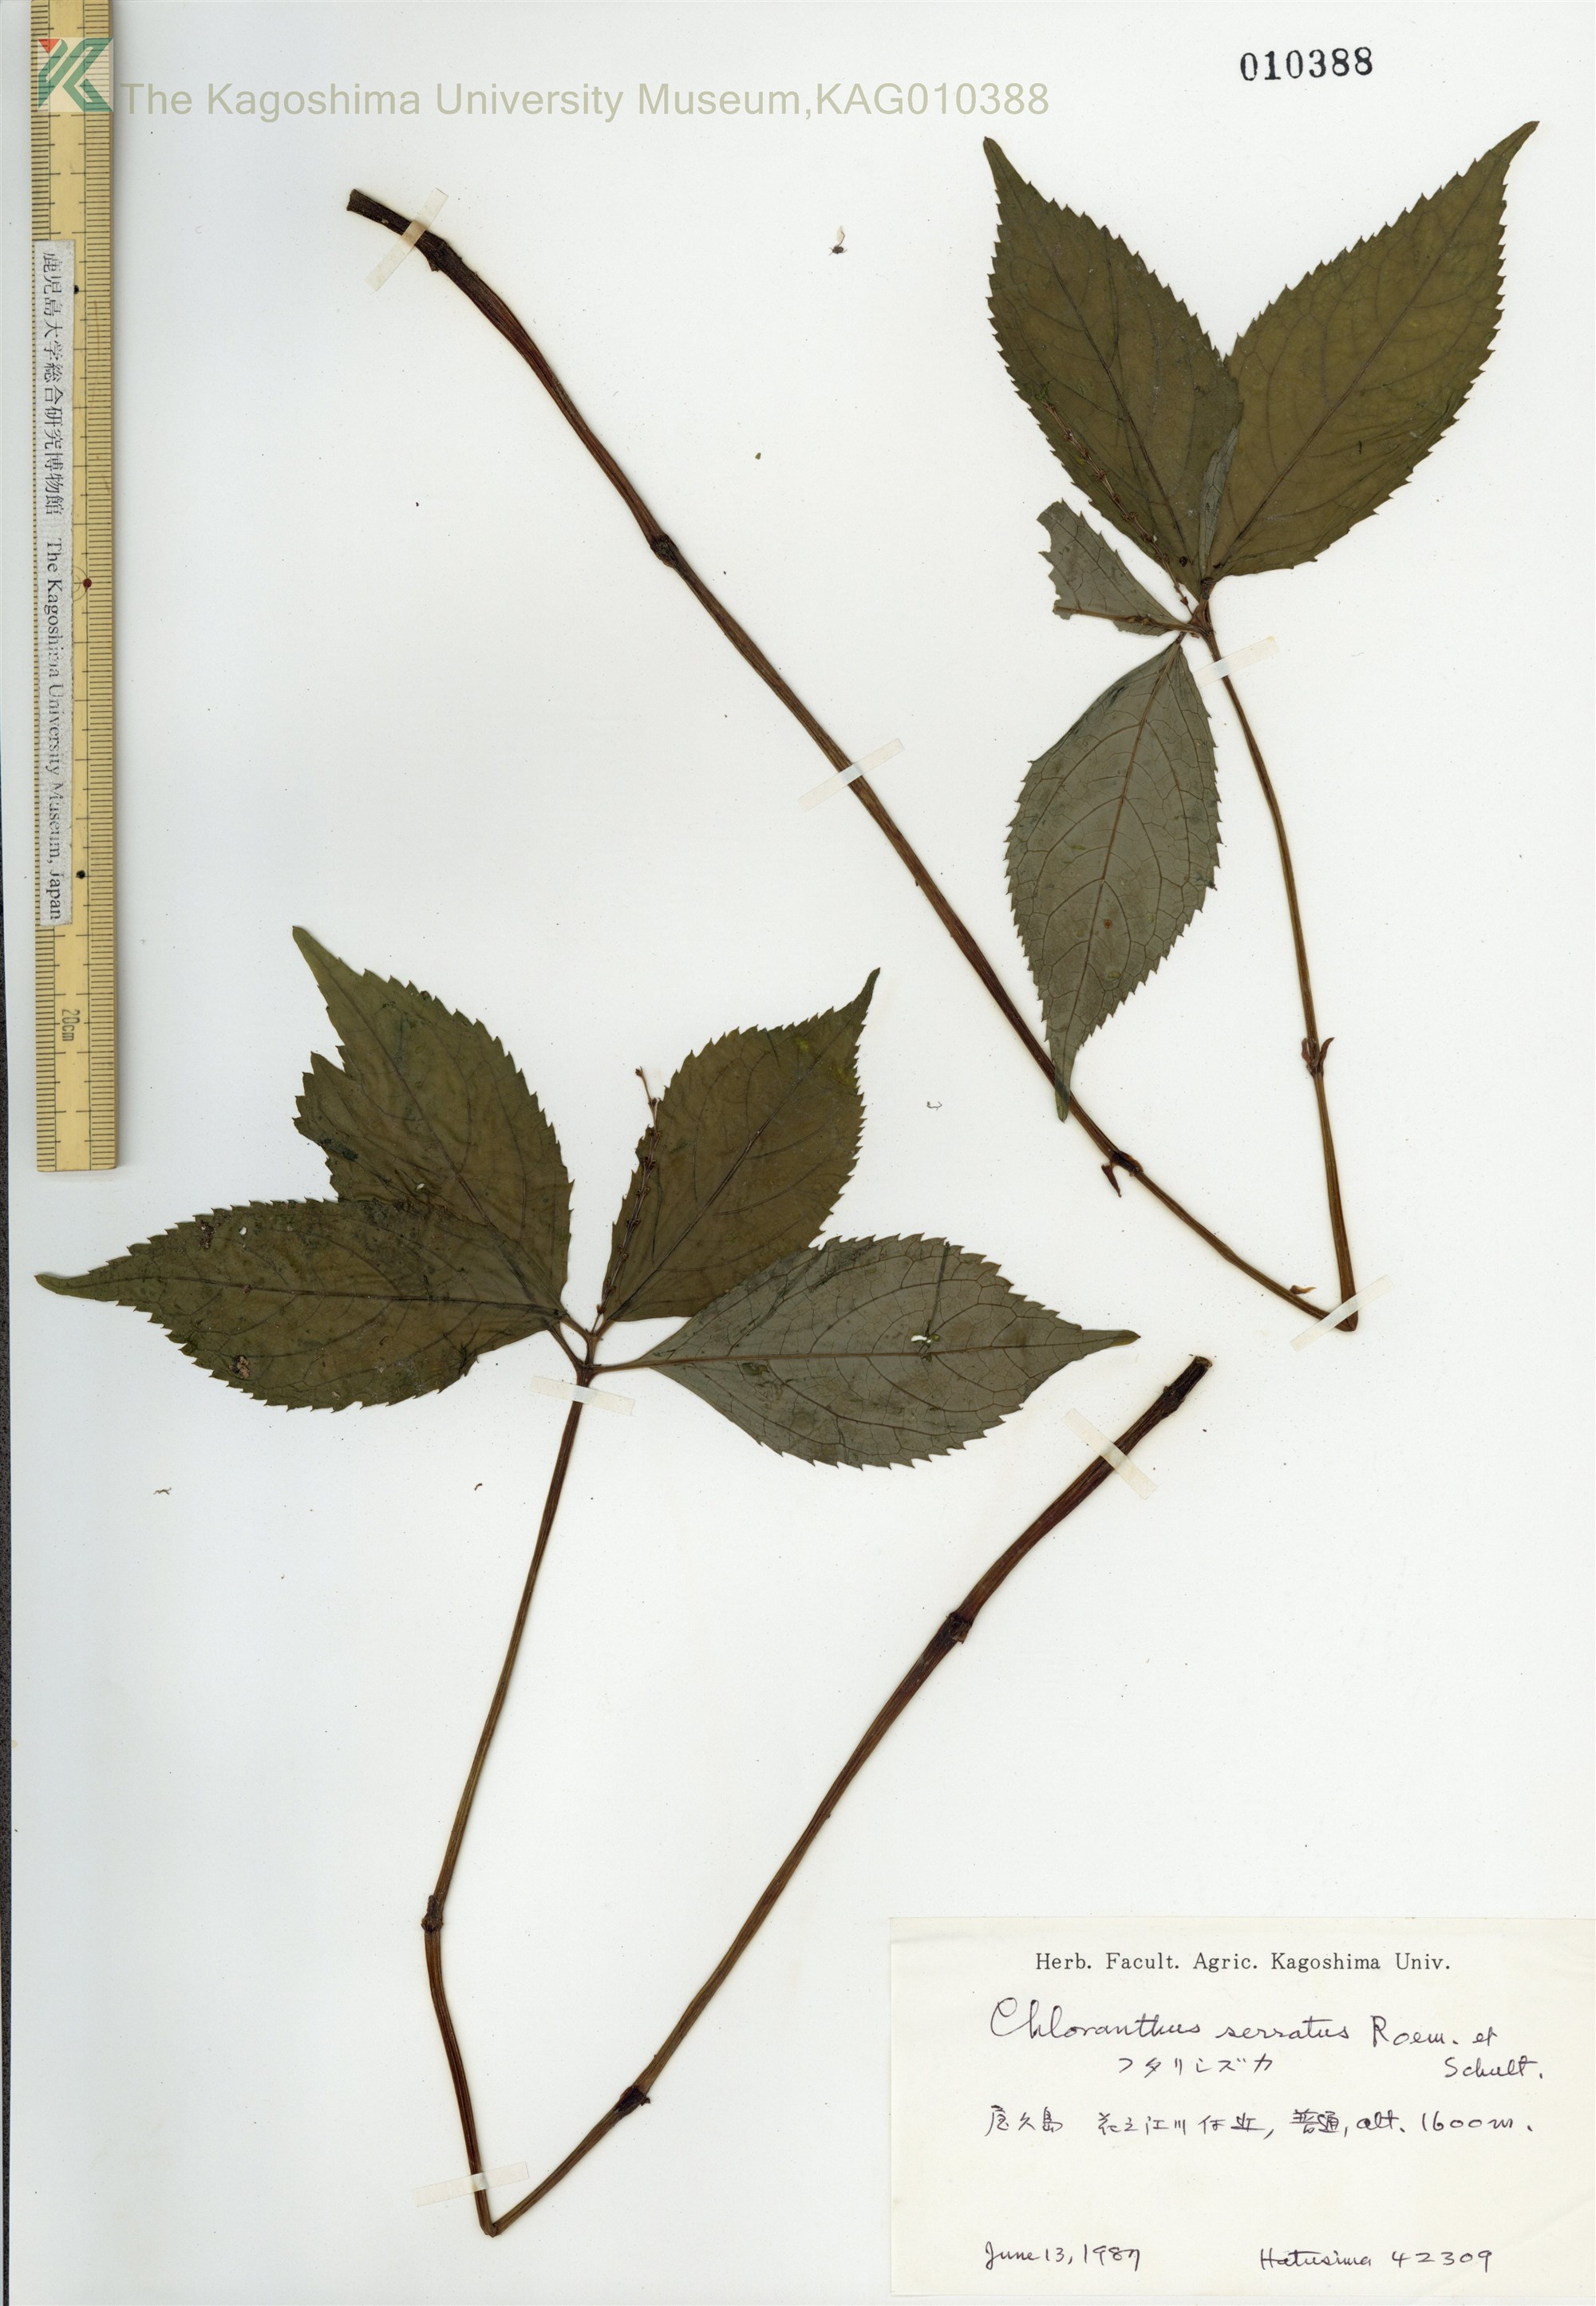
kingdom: Plantae
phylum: Tracheophyta
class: Magnoliopsida
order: Chloranthales
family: Chloranthaceae
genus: Chloranthus
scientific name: Chloranthus serratus
